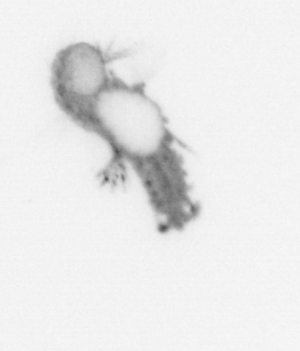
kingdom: Animalia
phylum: Annelida
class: Polychaeta
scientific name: Polychaeta
